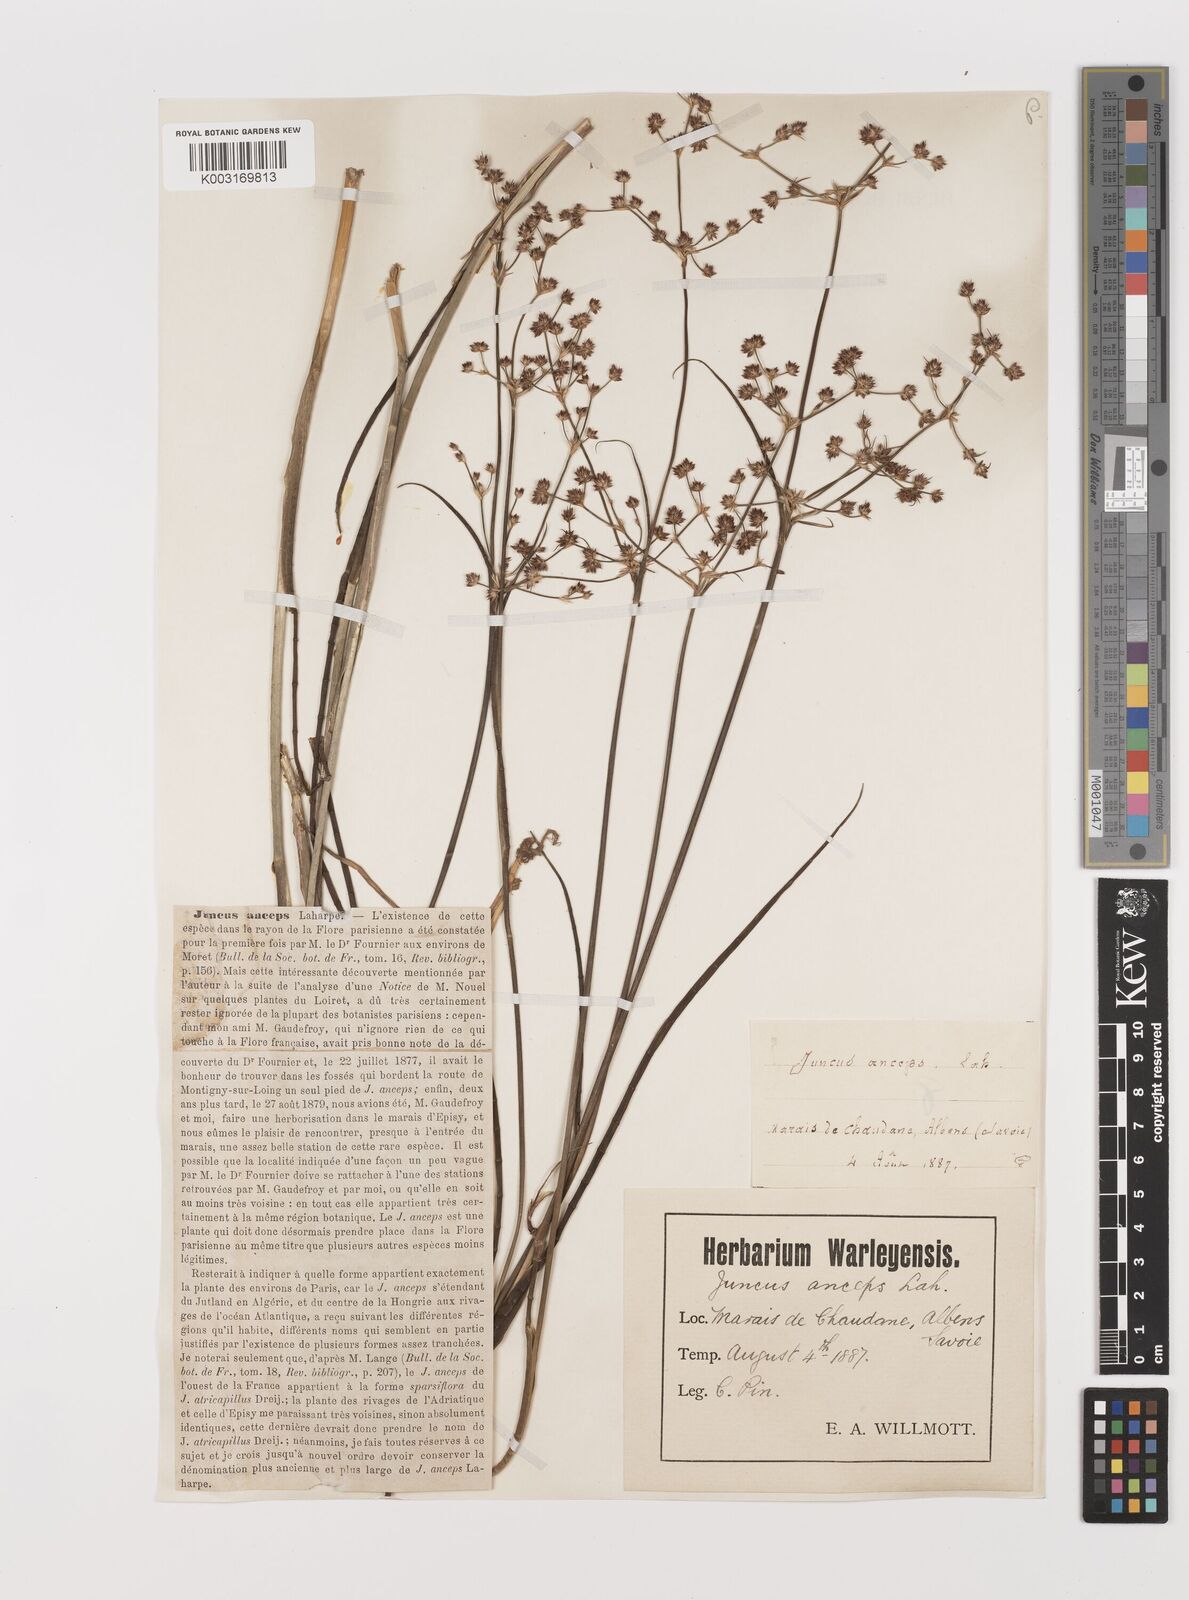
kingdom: Plantae
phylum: Tracheophyta
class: Liliopsida
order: Poales
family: Juncaceae
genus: Juncus
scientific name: Juncus anceps
